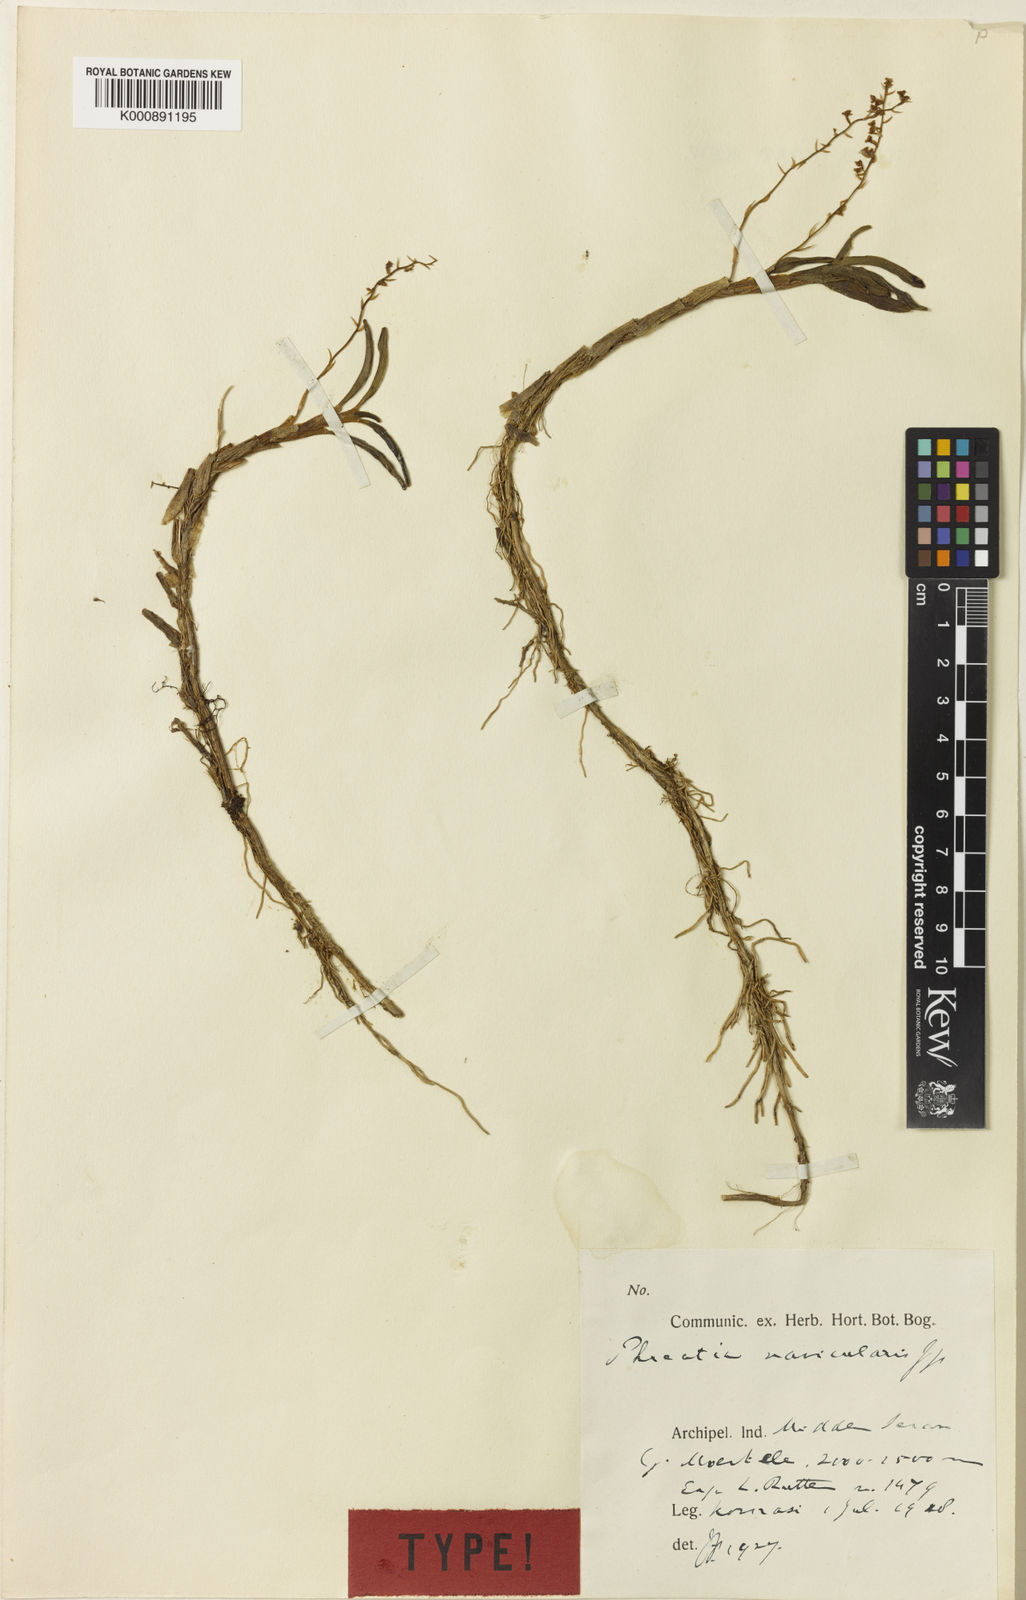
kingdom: Plantae
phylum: Tracheophyta
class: Liliopsida
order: Asparagales
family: Orchidaceae
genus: Phreatia
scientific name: Phreatia epimonticola
